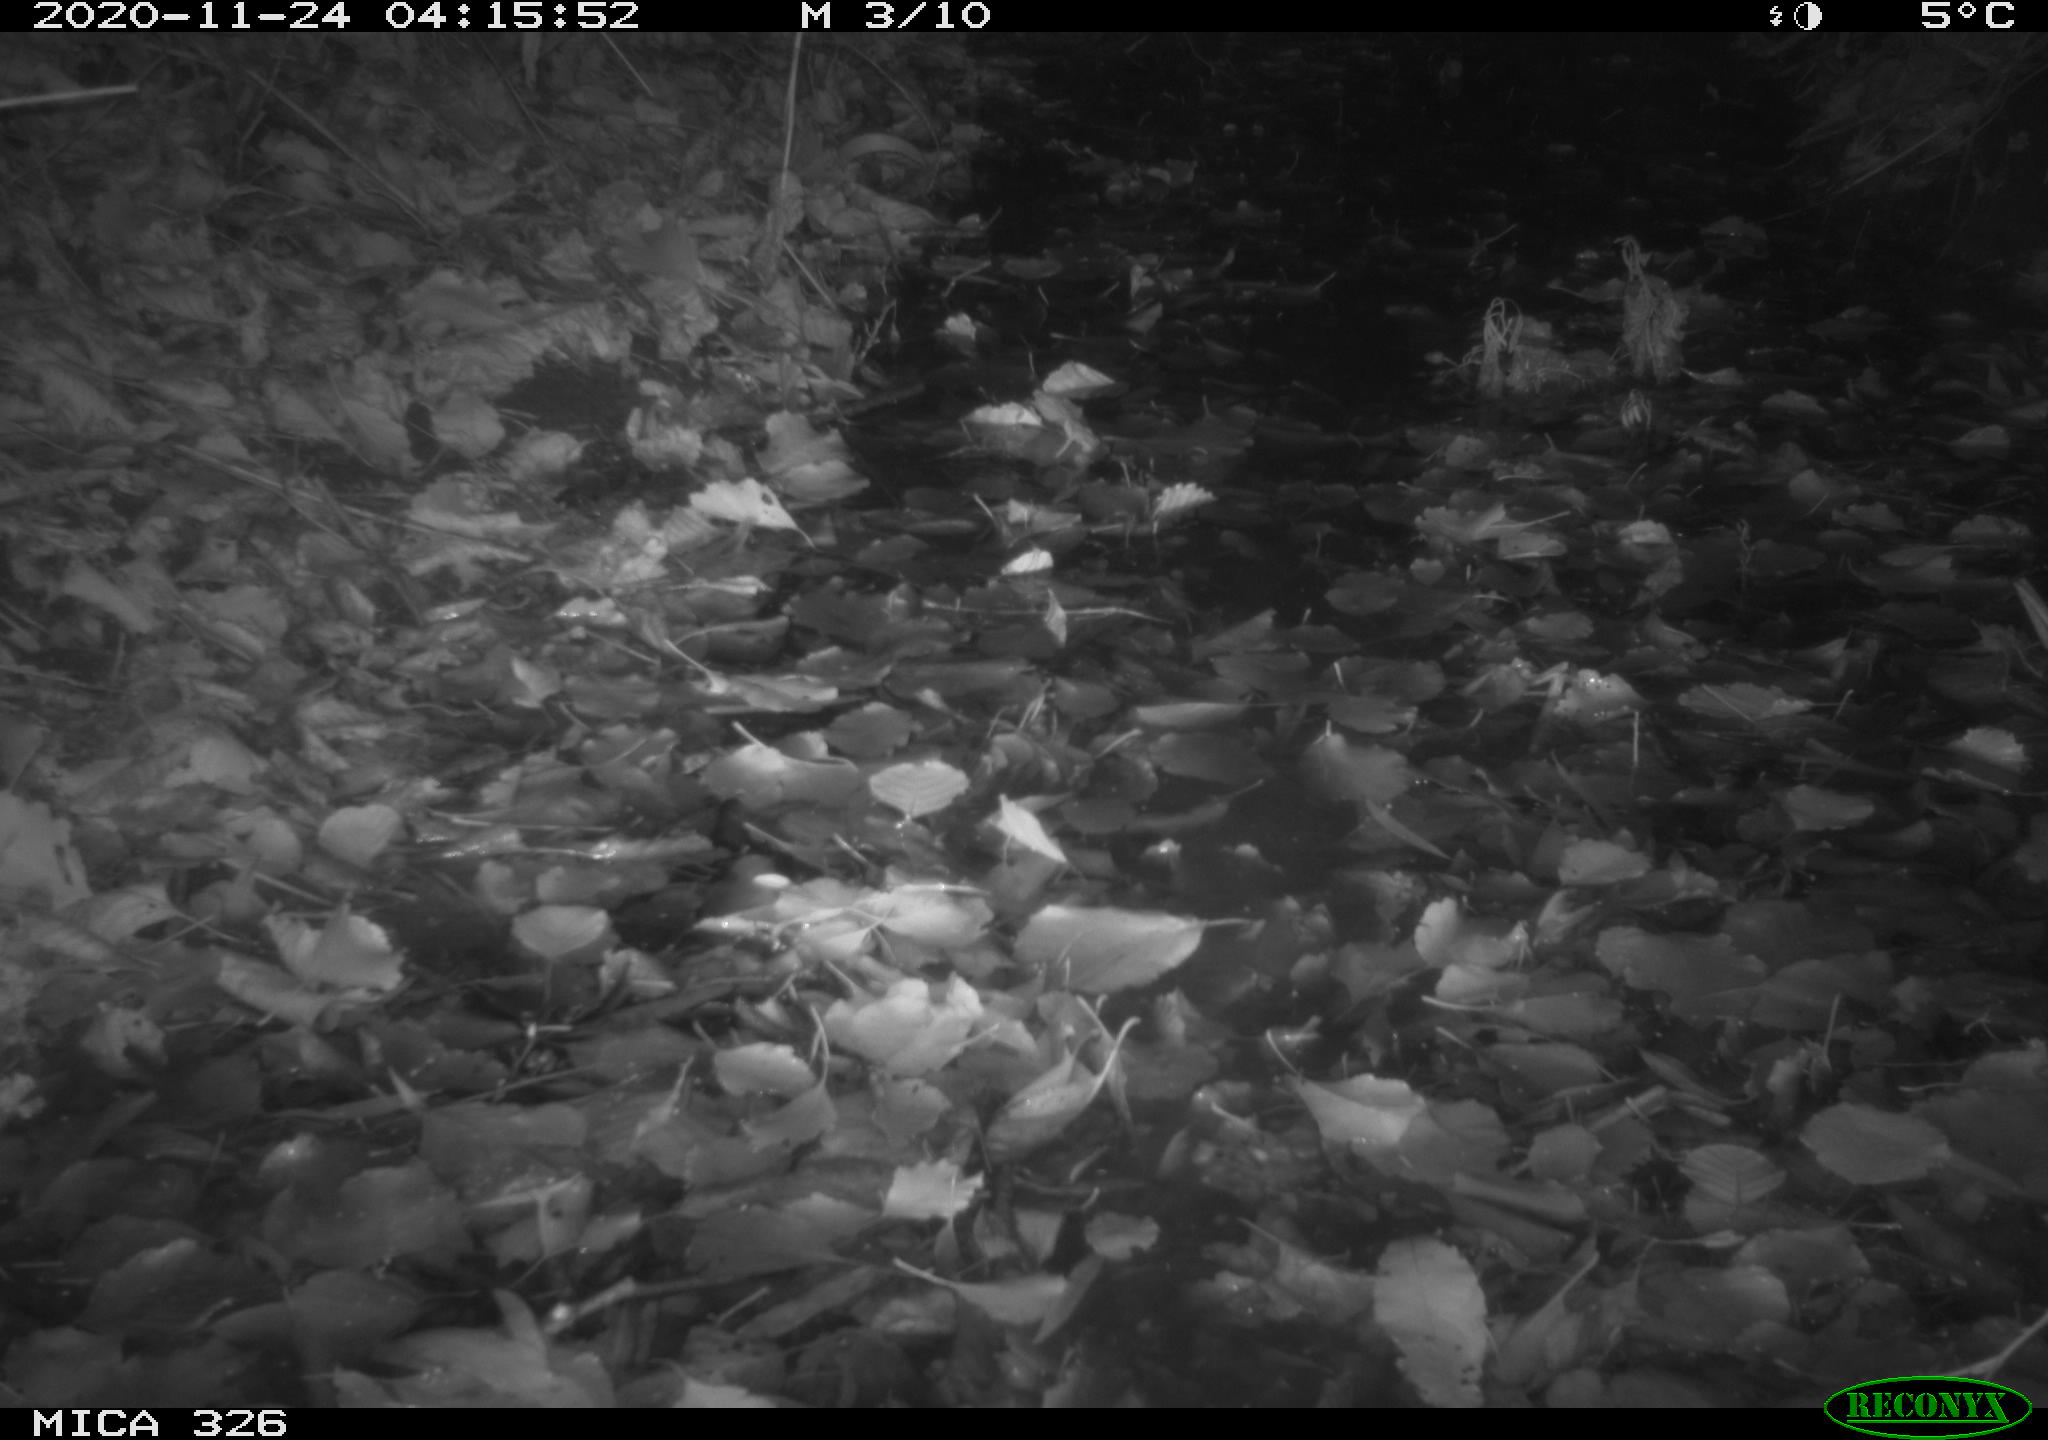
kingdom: Animalia
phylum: Chordata
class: Mammalia
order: Carnivora
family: Mustelidae
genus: Lutra
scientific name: Lutra lutra
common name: European otter
